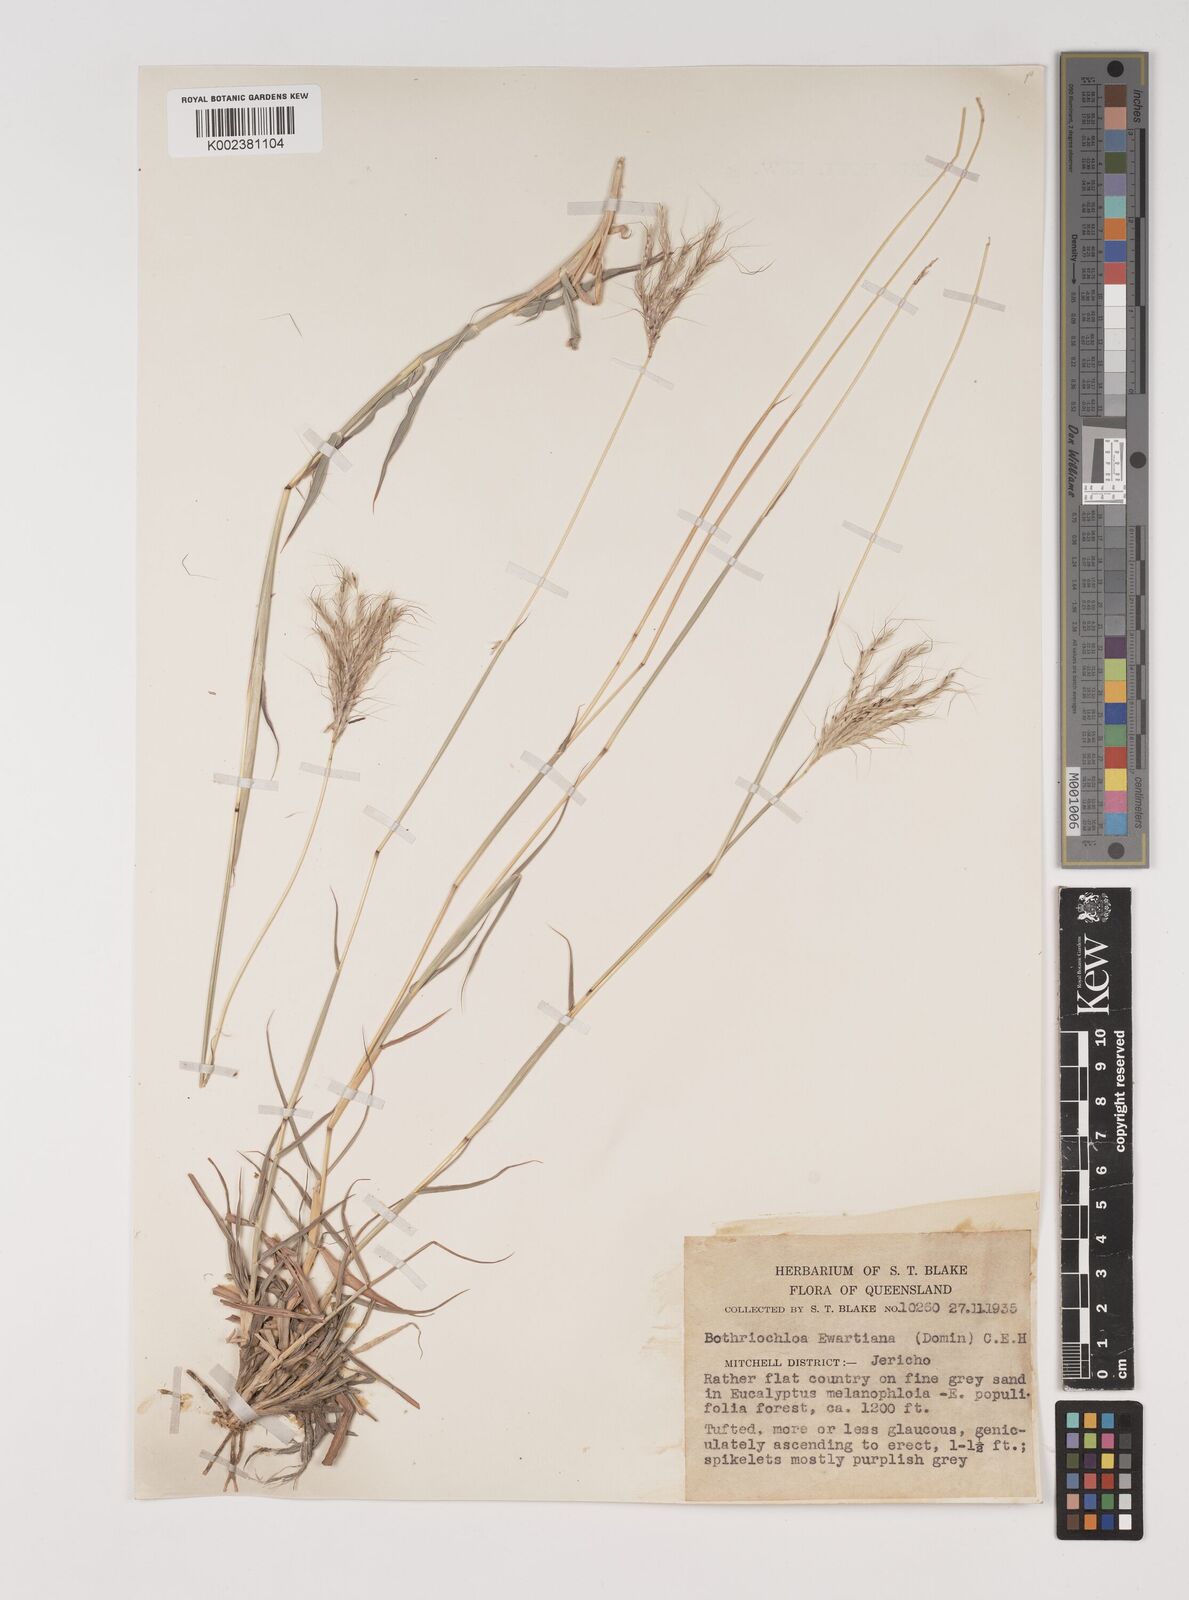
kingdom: Plantae
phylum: Tracheophyta
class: Liliopsida
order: Poales
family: Poaceae
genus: Bothriochloa
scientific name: Bothriochloa ewartiana
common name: Desert-bluegrass
